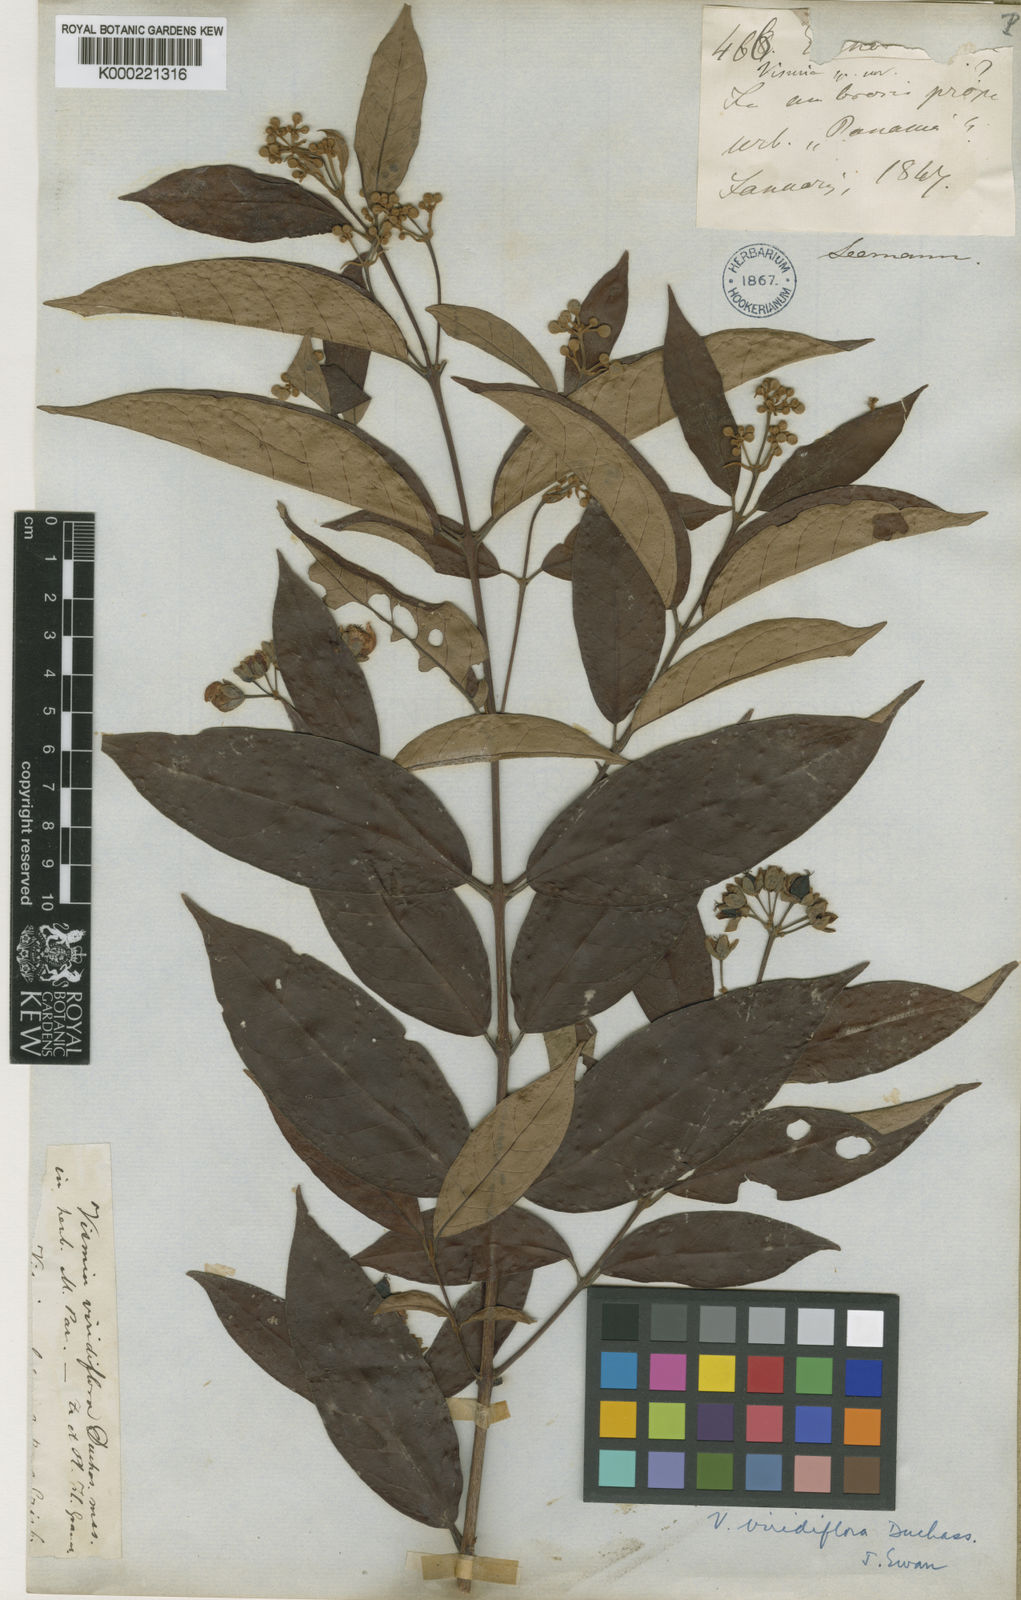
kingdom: Plantae
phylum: Tracheophyta
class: Magnoliopsida
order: Malpighiales
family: Hypericaceae
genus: Vismia
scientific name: Vismia billbergiana
